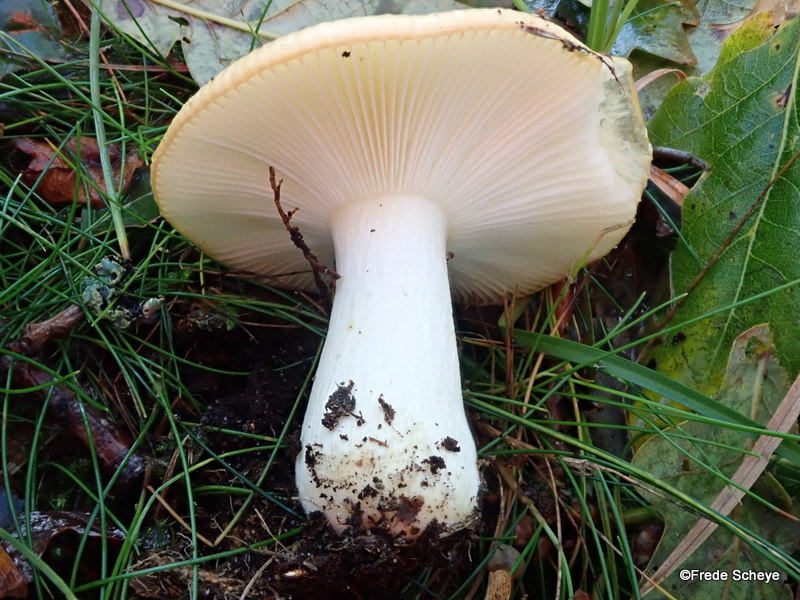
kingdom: Fungi
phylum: Basidiomycota
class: Agaricomycetes
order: Russulales
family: Russulaceae
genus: Russula
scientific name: Russula ochroleuca
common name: okkergul skørhat
